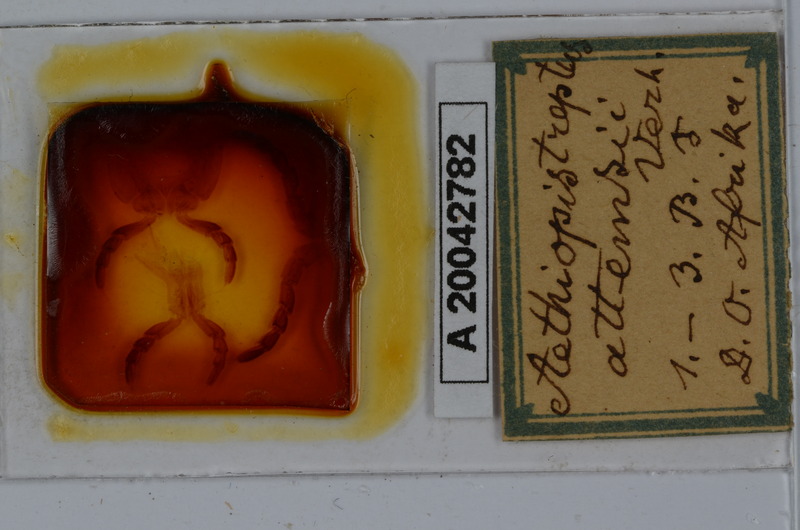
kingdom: Animalia
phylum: Arthropoda
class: Diplopoda
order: Spirostreptida
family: Spirostreptidae
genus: Archispirostreptus
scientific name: Archispirostreptus gigas
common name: Giant african millipede
